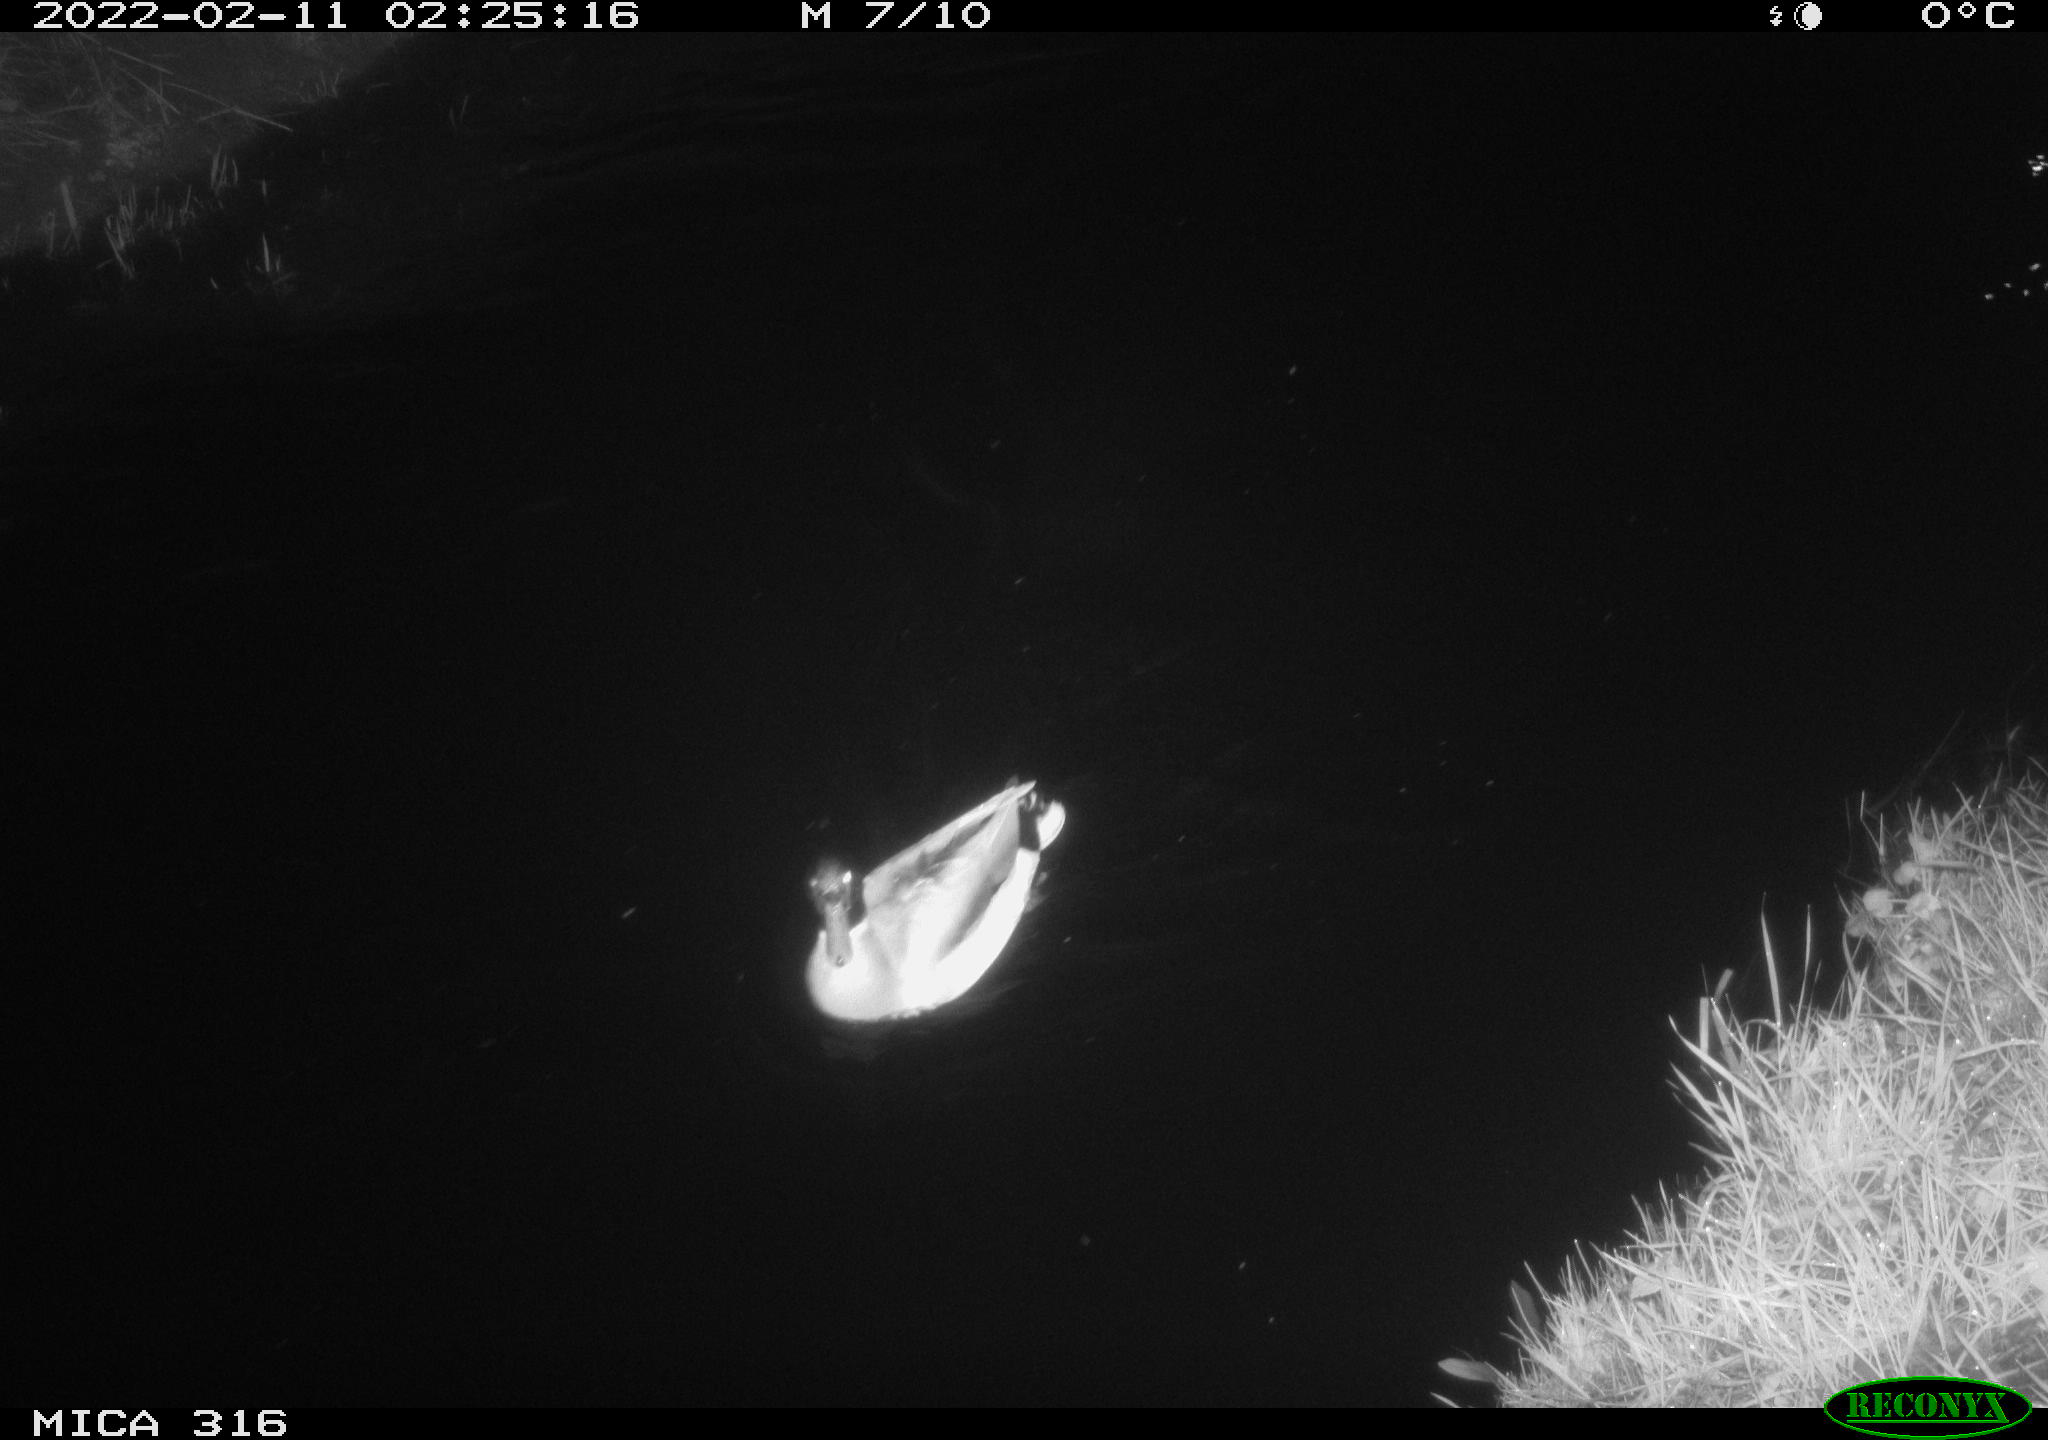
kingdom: Animalia
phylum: Chordata
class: Aves
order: Anseriformes
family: Anatidae
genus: Anas
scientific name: Anas platyrhynchos
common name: Mallard
